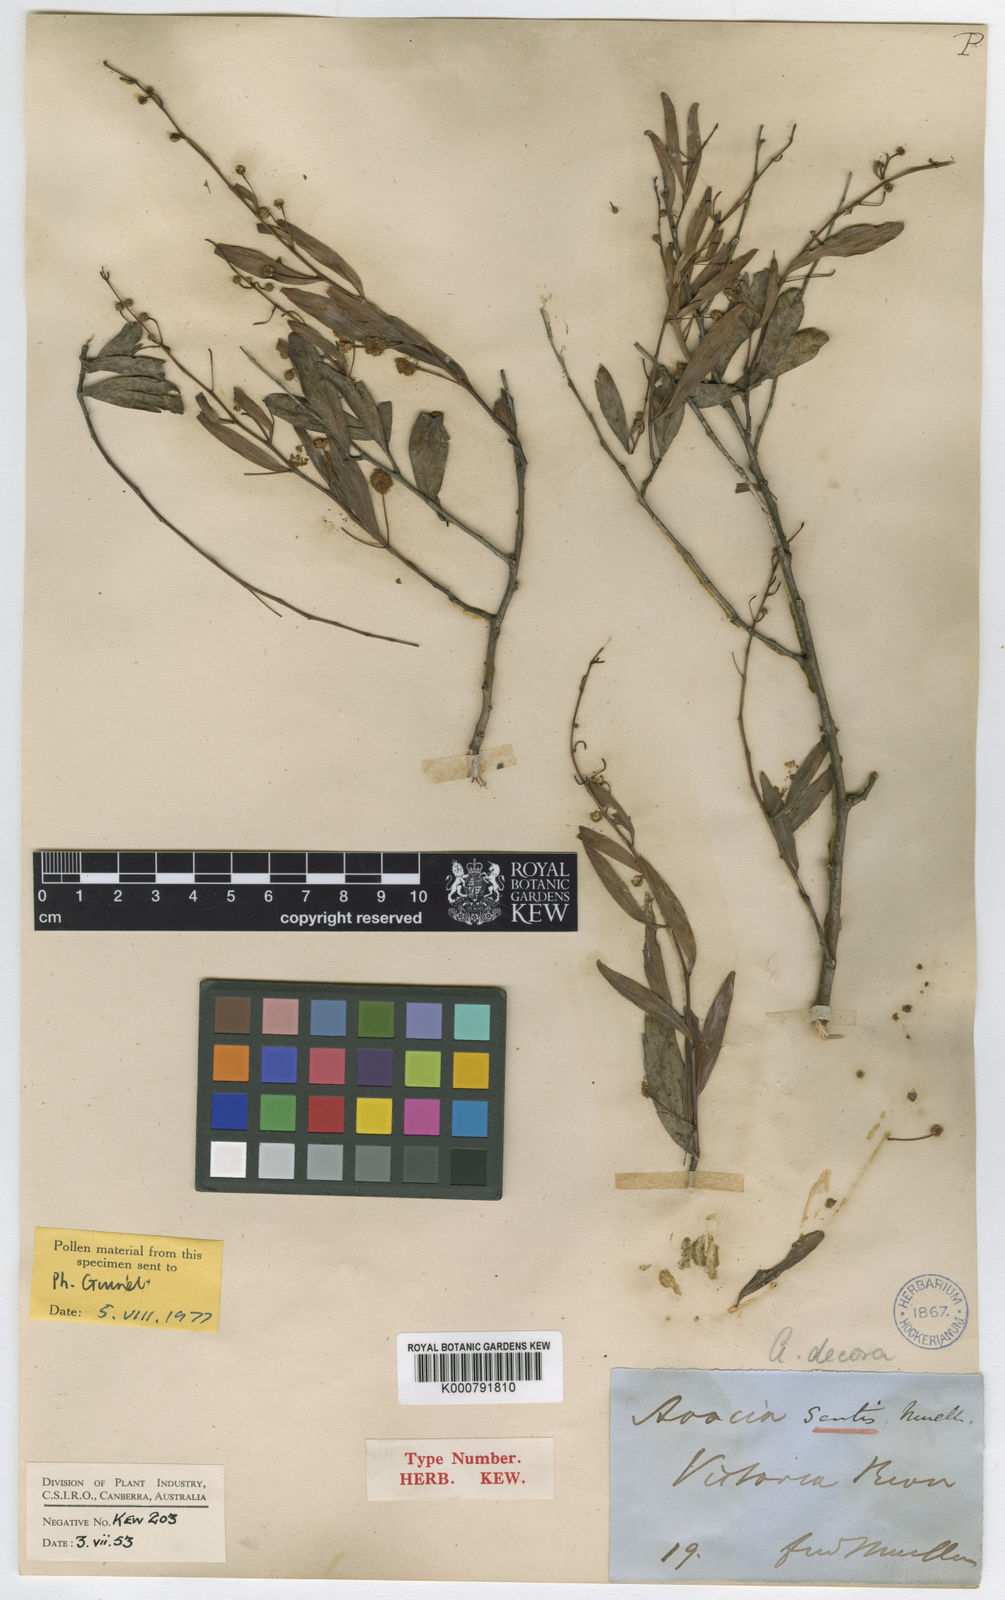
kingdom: Plantae
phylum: Tracheophyta
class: Magnoliopsida
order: Fabales
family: Fabaceae
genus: Acacia
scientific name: Acacia victoriae
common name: Bramble wattle
